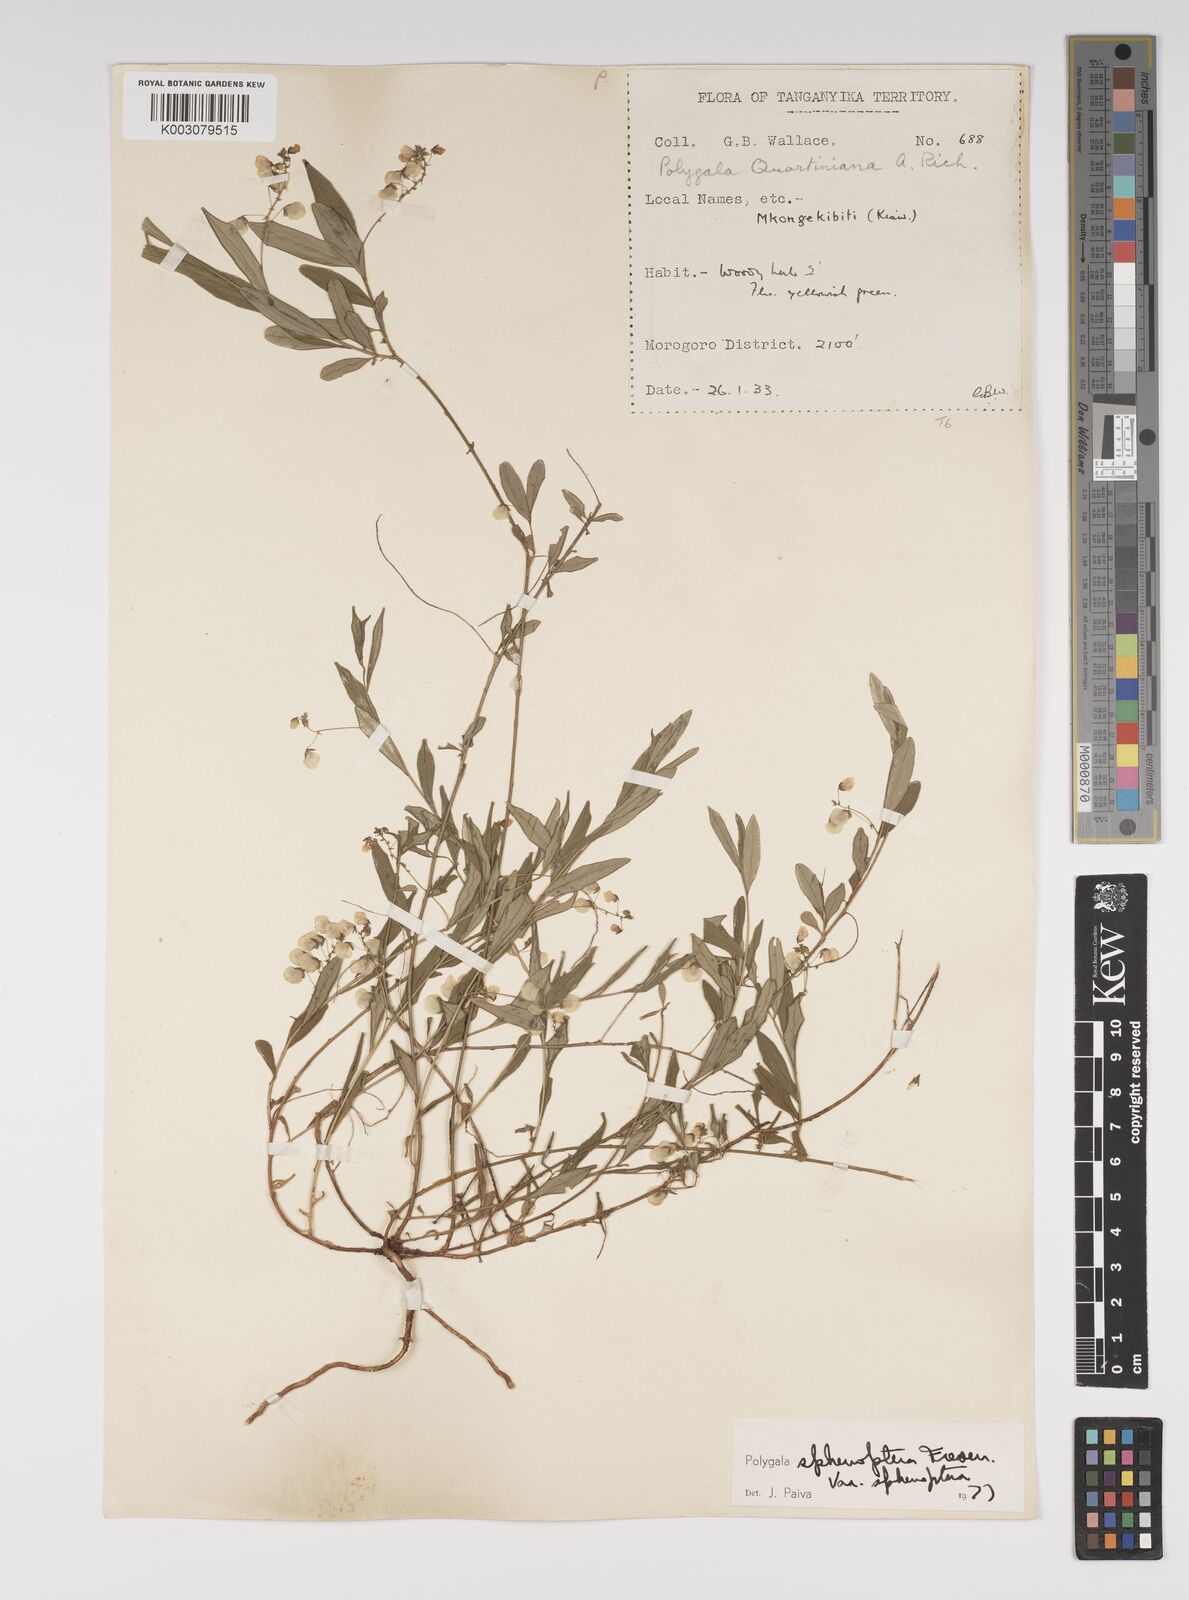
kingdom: Plantae
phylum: Tracheophyta
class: Magnoliopsida
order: Fabales
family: Polygalaceae
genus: Polygala
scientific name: Polygala sphenoptera
